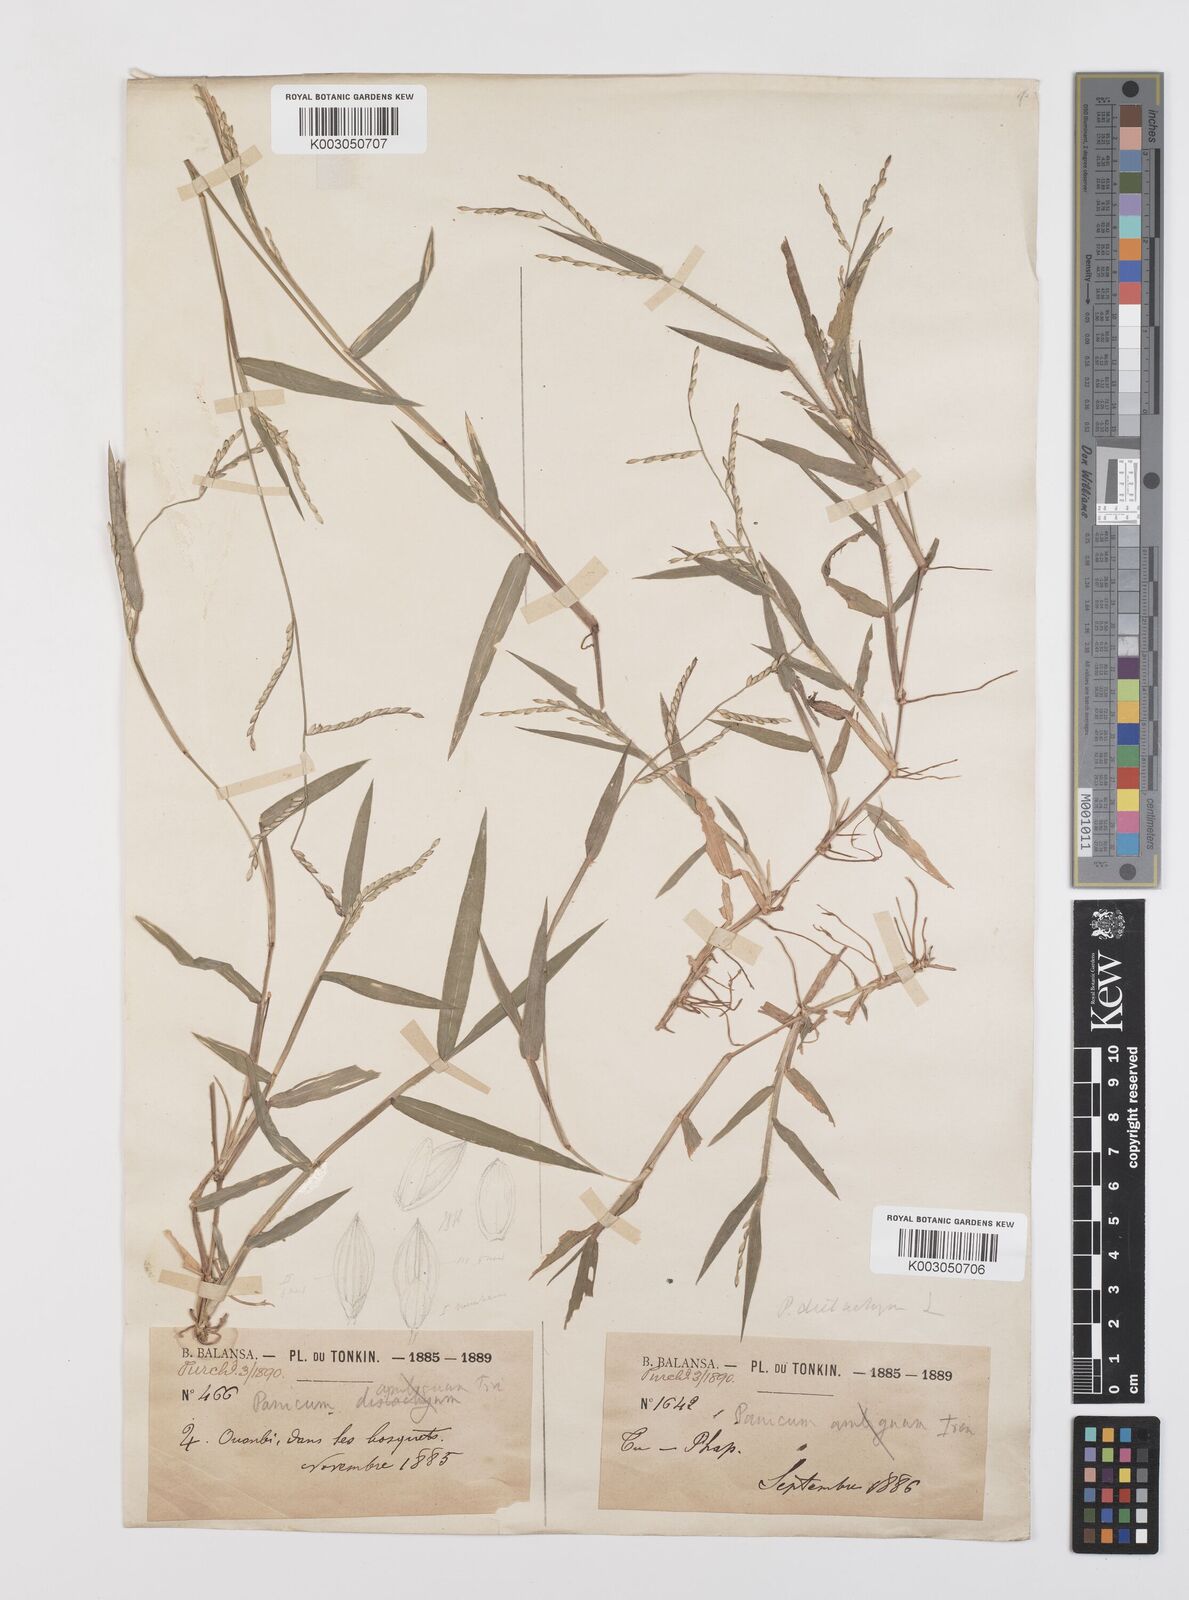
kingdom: Plantae
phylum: Tracheophyta
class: Liliopsida
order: Poales
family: Poaceae
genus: Urochloa
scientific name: Urochloa subquadripara
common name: Armgrass millet
